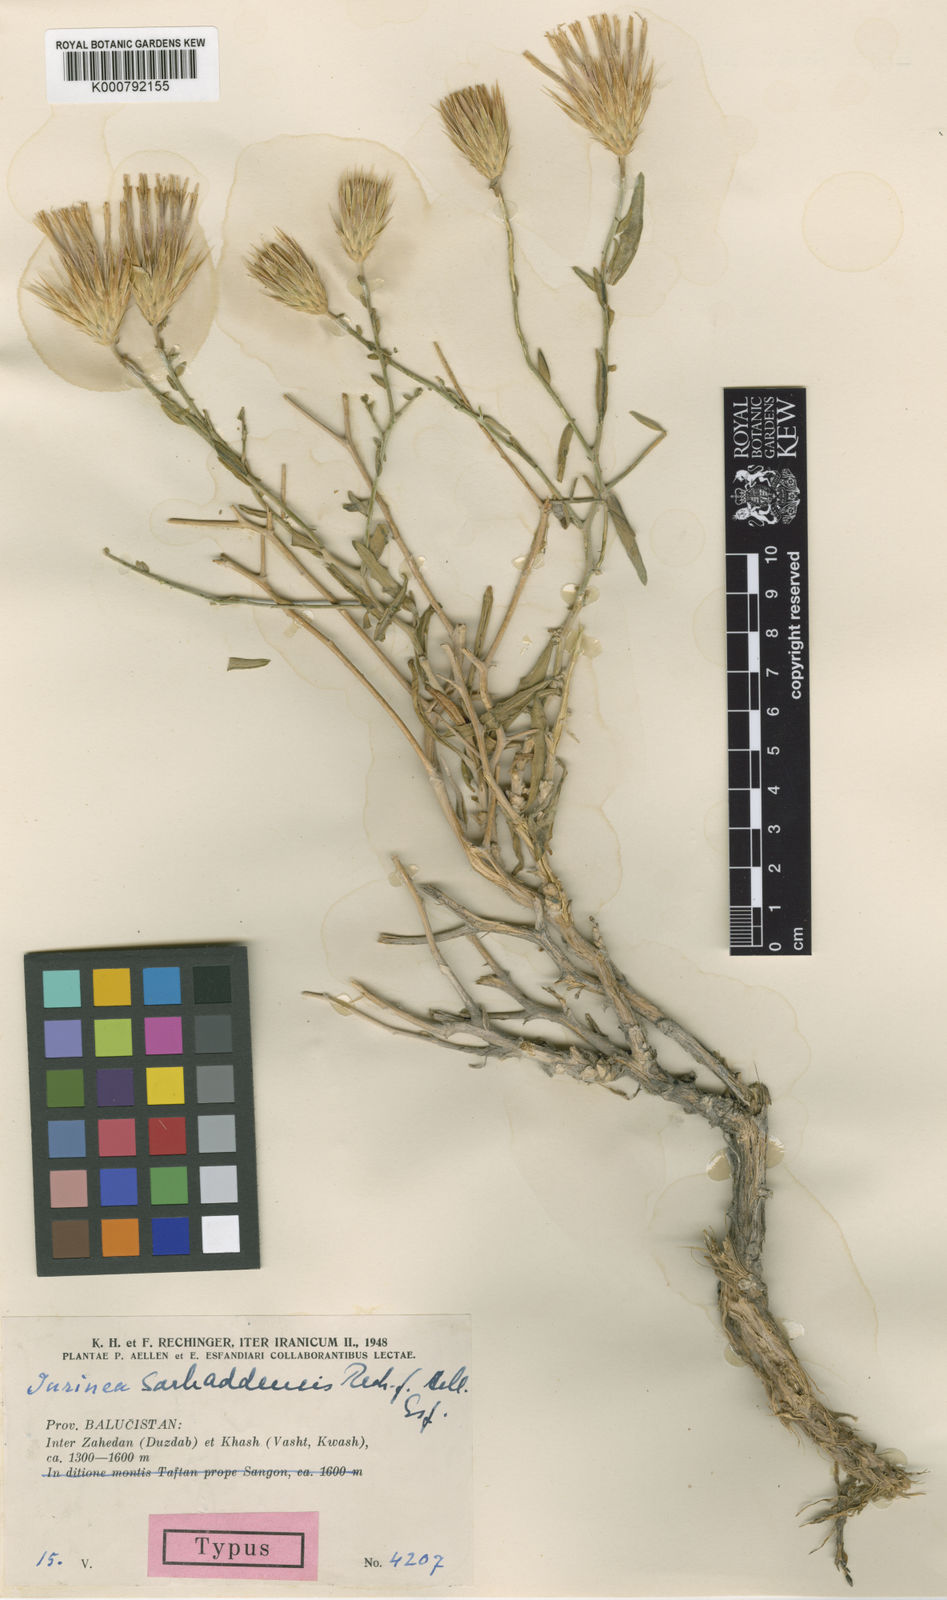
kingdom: Plantae
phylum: Tracheophyta
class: Magnoliopsida
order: Asterales
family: Asteraceae
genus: Jurinea
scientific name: Jurinea
